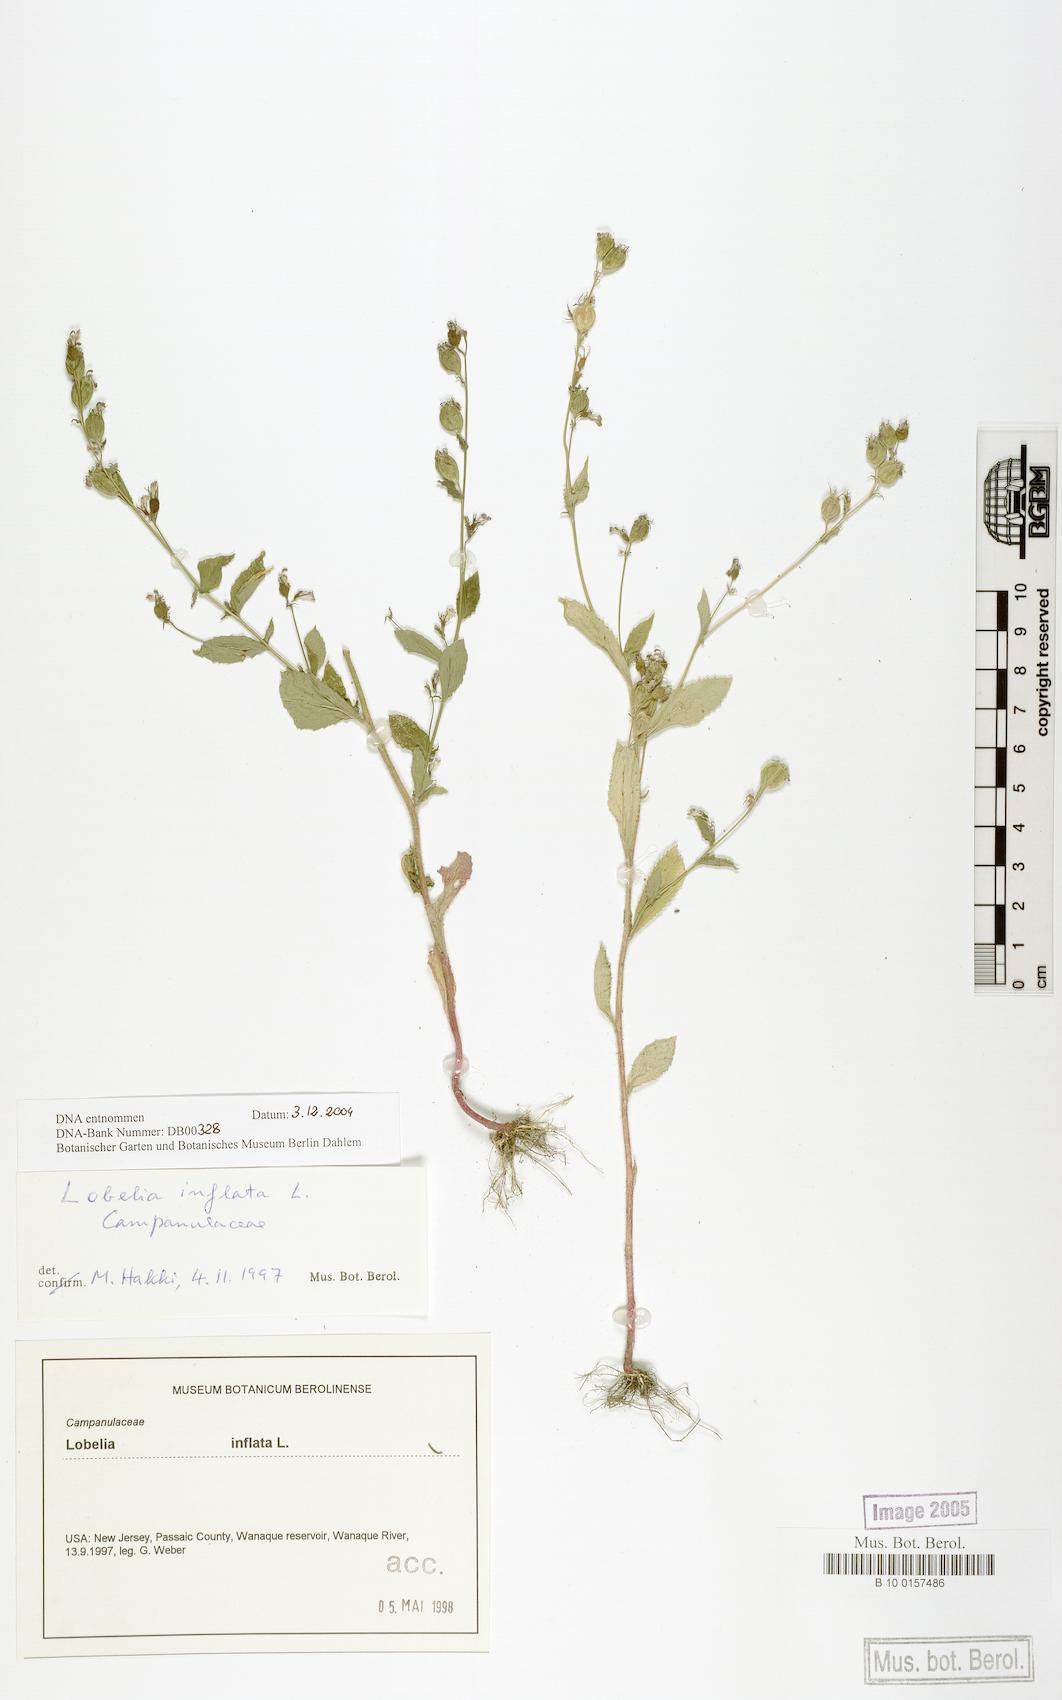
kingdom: Plantae
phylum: Tracheophyta
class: Magnoliopsida
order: Asterales
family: Campanulaceae
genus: Lobelia
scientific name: Lobelia inflata
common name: Indian tobacco
